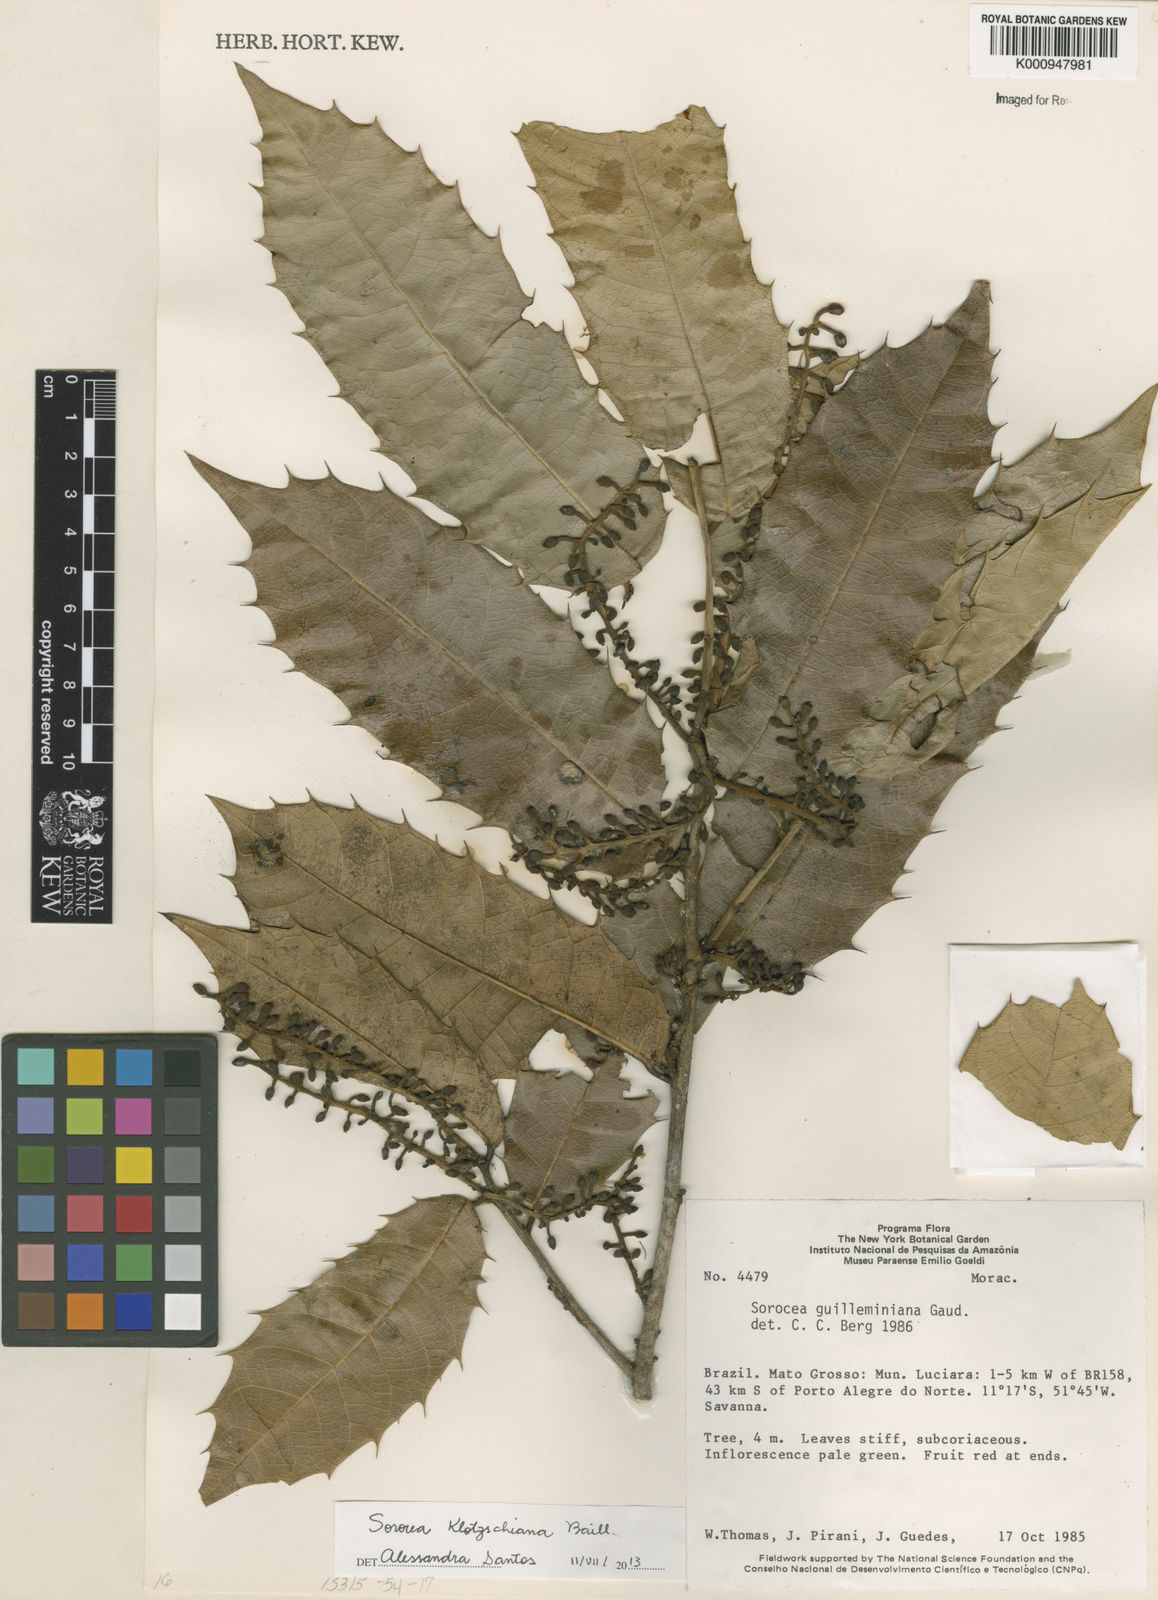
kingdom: Plantae
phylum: Tracheophyta
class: Magnoliopsida
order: Rosales
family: Moraceae
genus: Sorocea
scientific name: Sorocea guilleminiana
